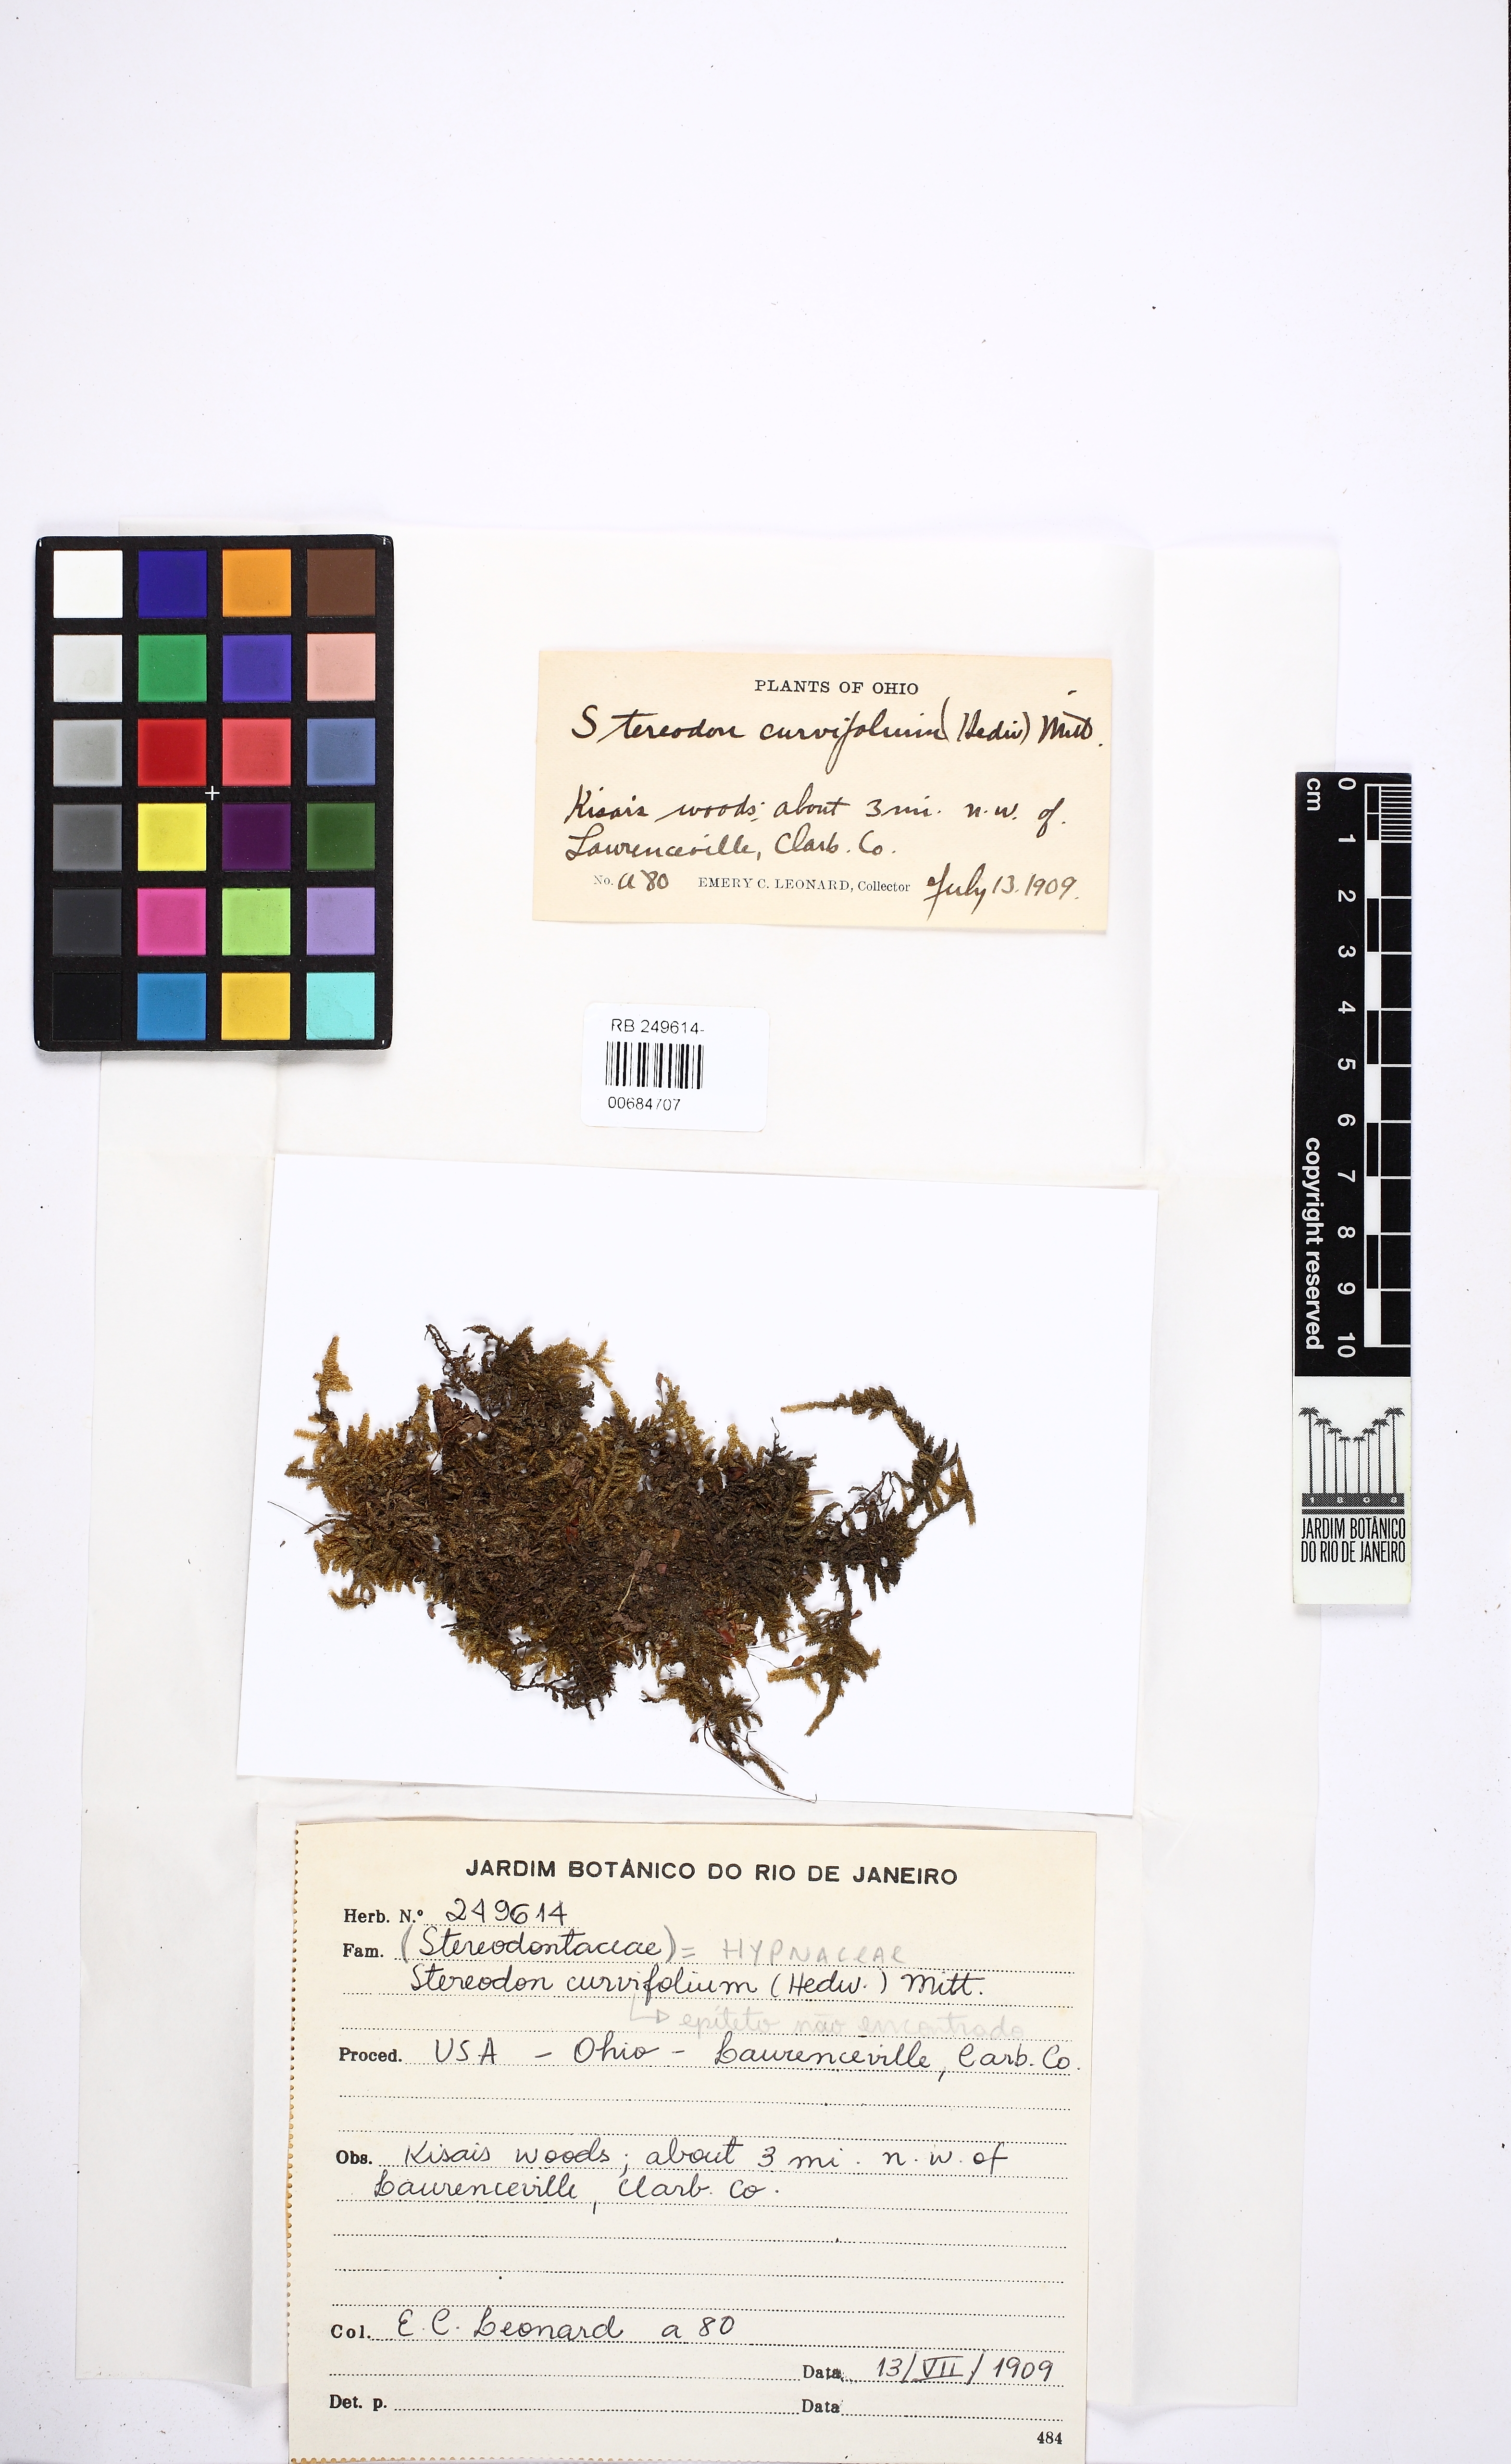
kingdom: Plantae
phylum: Bryophyta
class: Bryopsida
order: Hypnales
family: Stereodontaceae
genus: Stereodon
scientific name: Stereodon
